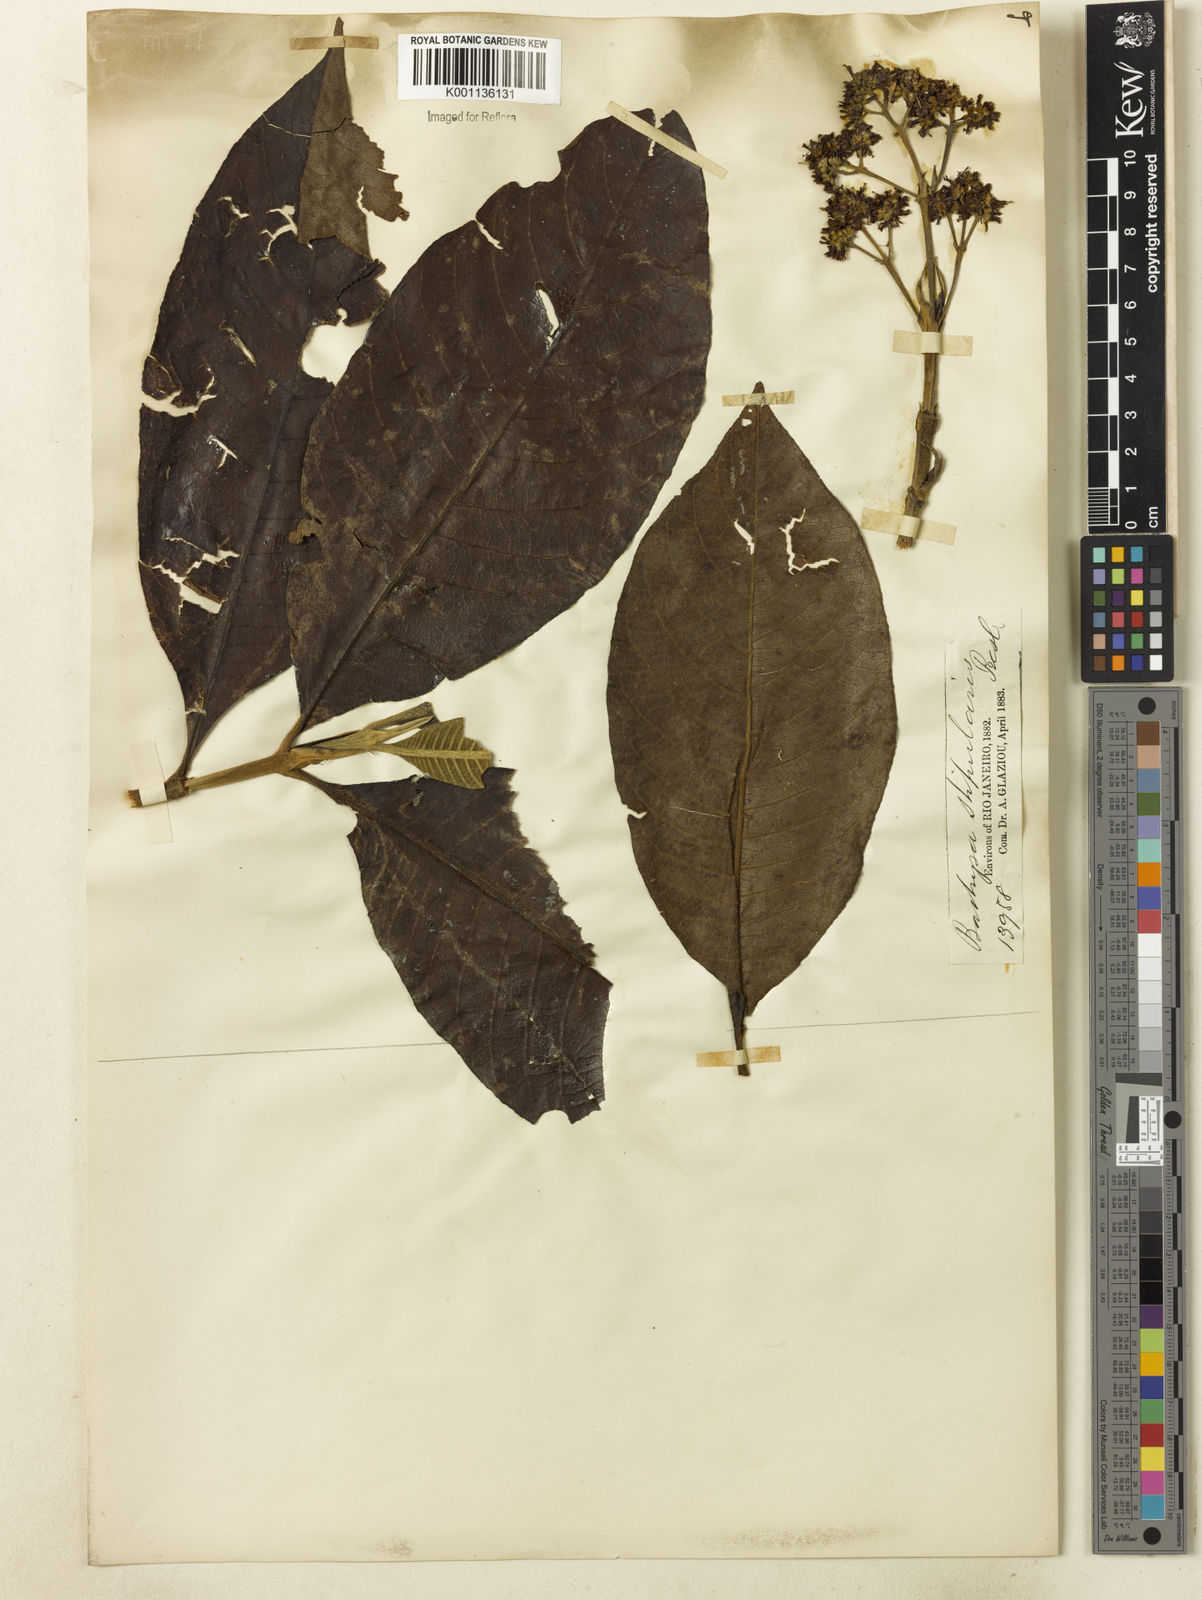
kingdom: Plantae
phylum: Tracheophyta
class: Magnoliopsida
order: Gentianales
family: Rubiaceae
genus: Bathysa
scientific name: Bathysa stipulata
